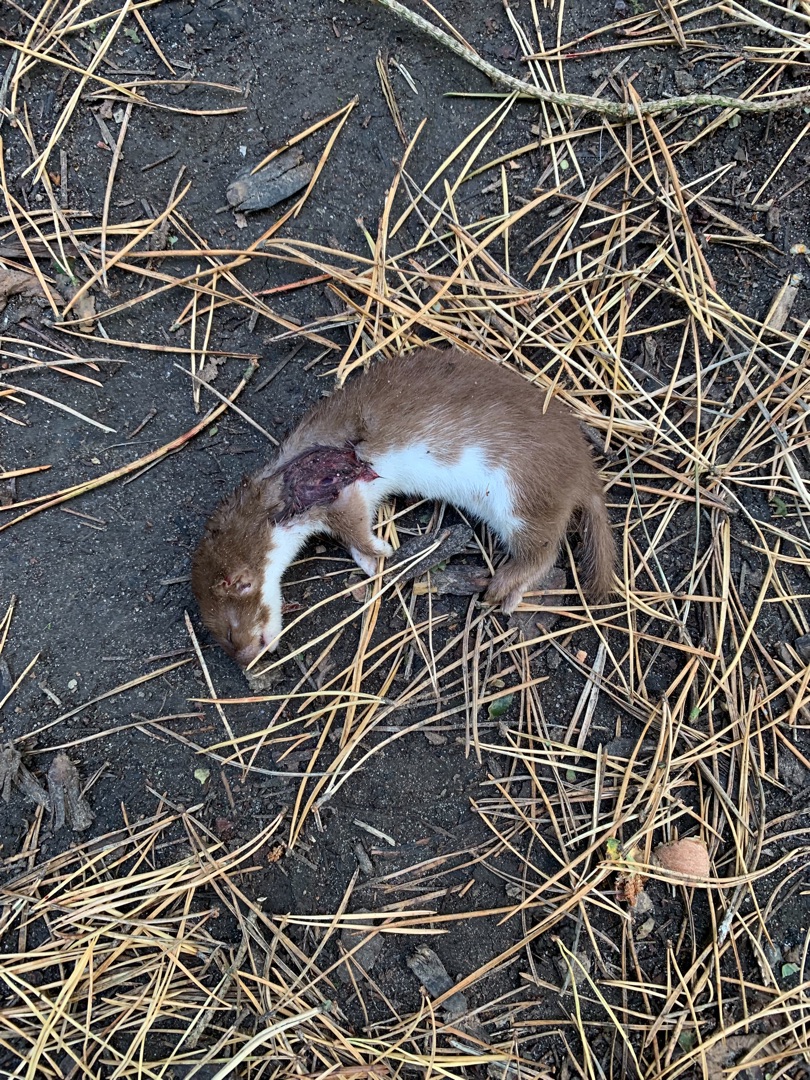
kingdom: Animalia
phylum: Chordata
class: Mammalia
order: Carnivora
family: Mustelidae
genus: Mustela
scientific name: Mustela nivalis
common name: Brud
